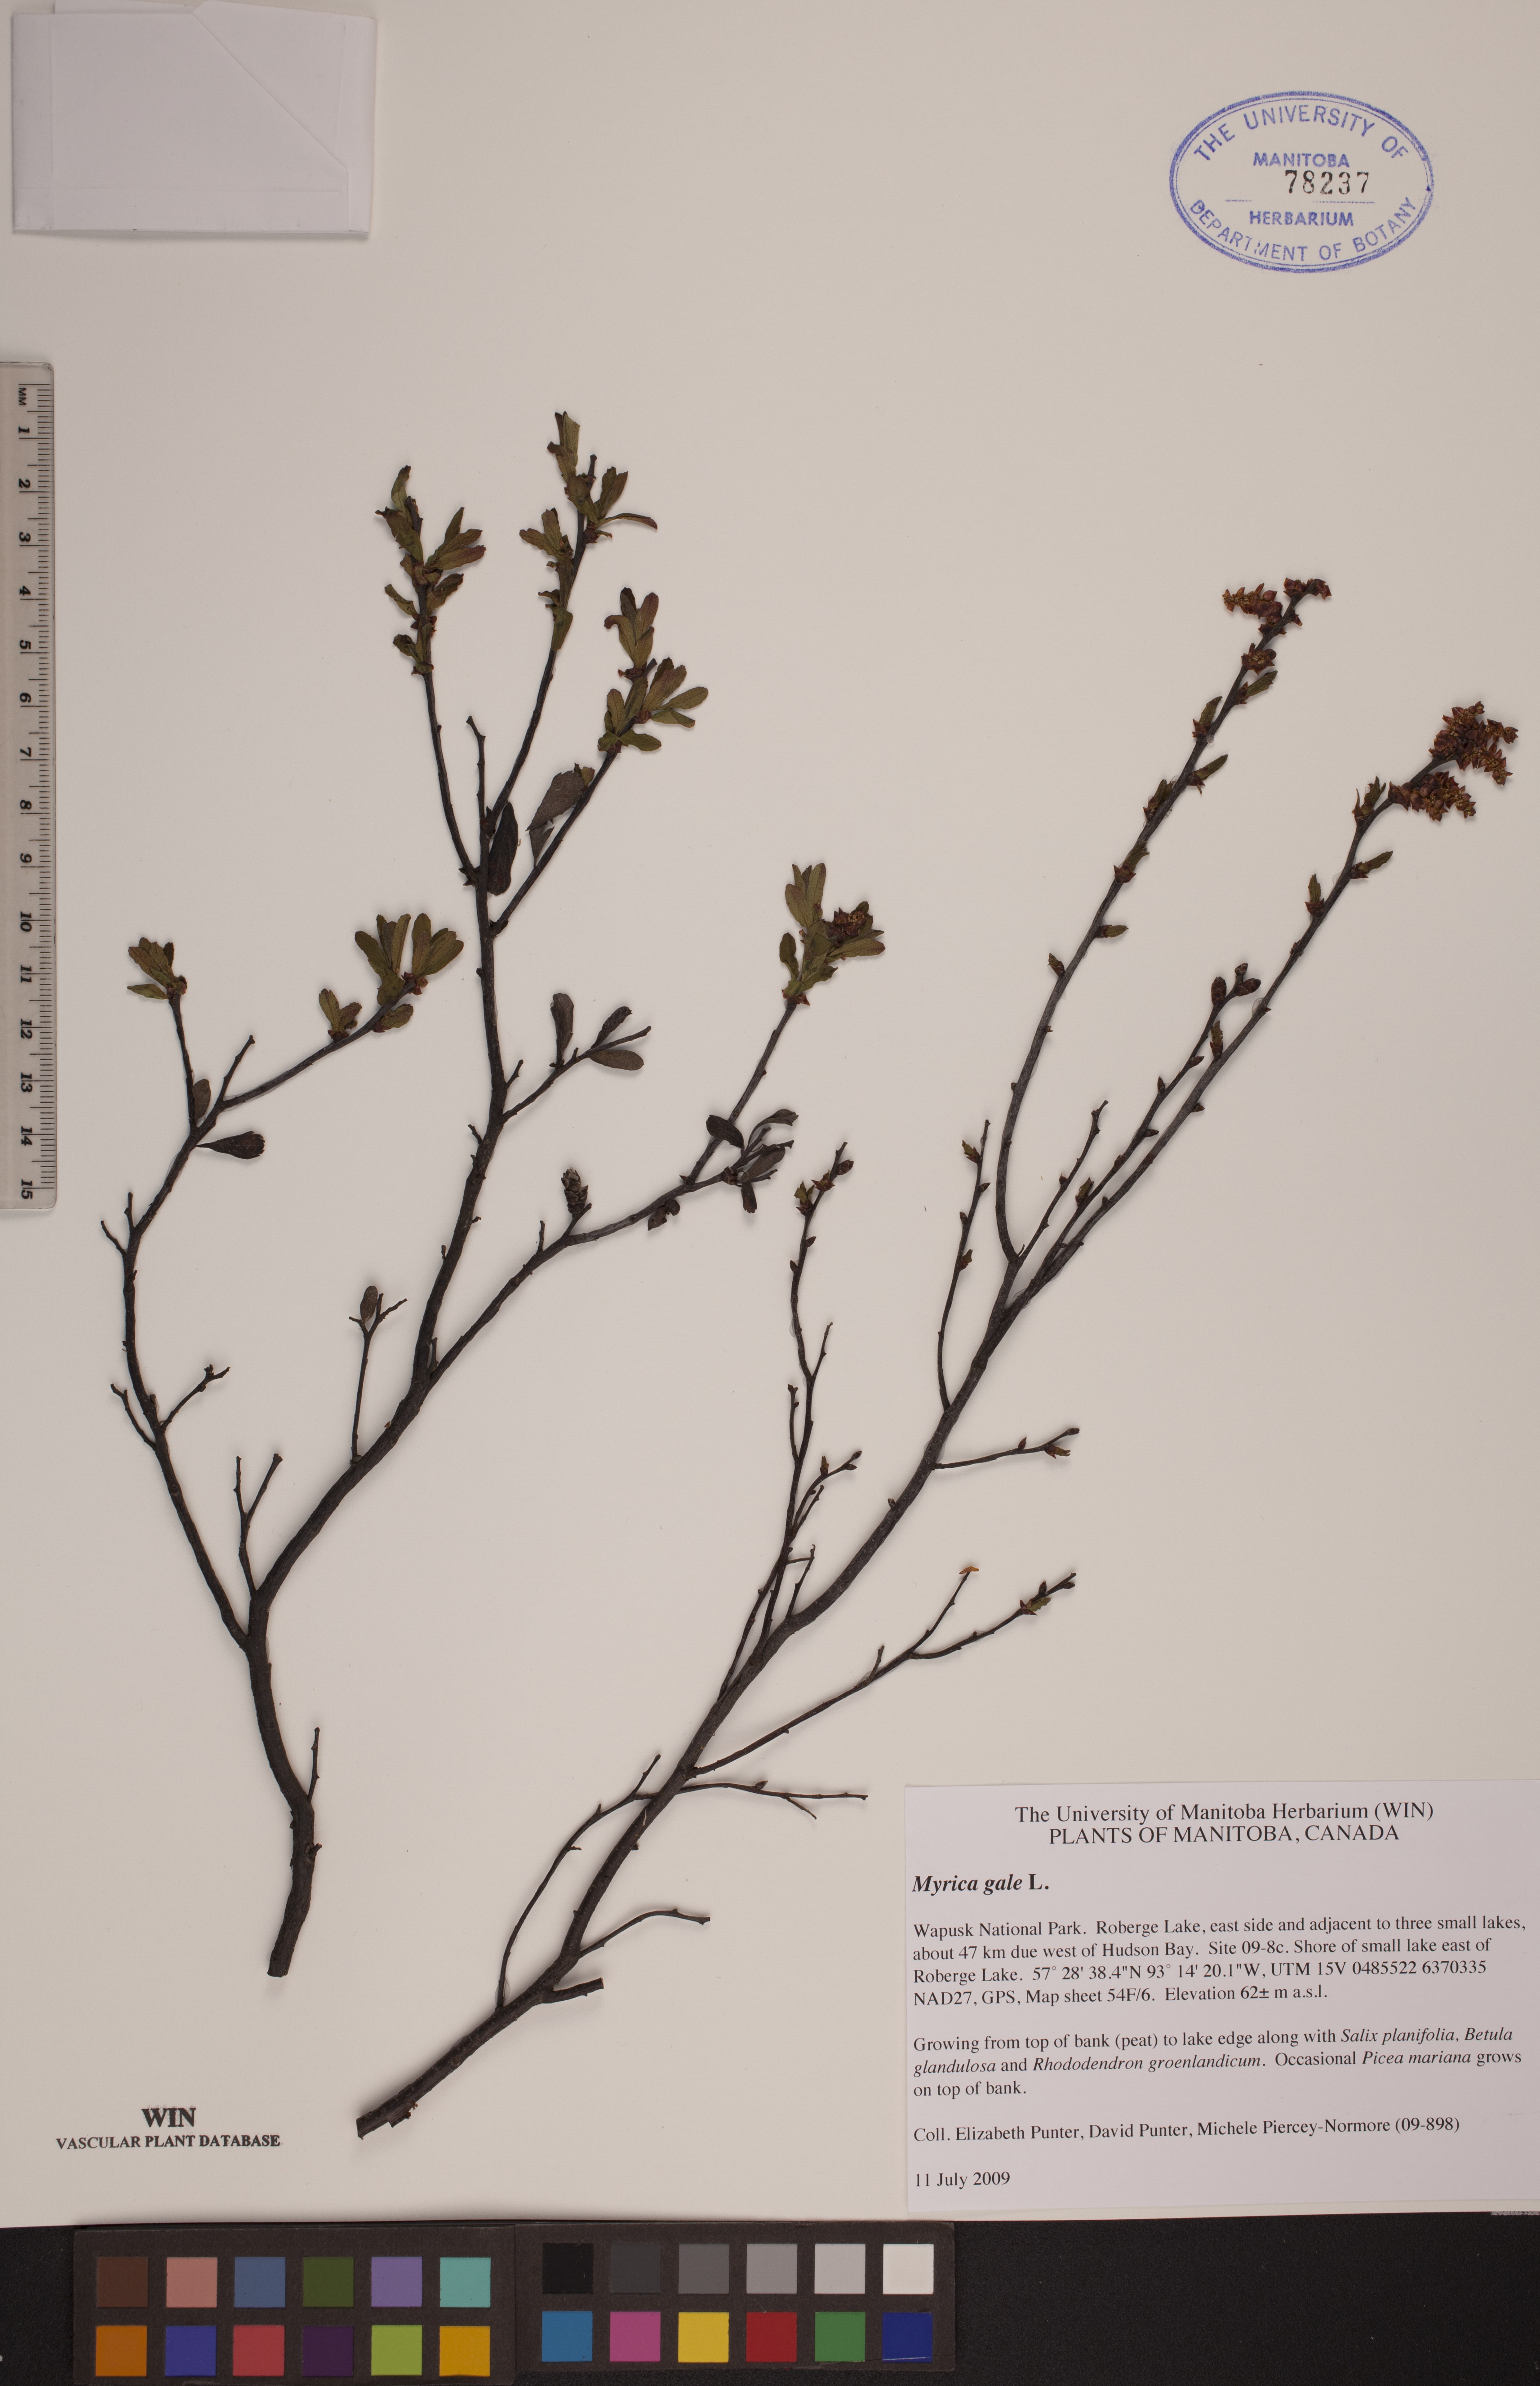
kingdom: Plantae
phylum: Tracheophyta
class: Magnoliopsida
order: Fagales
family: Myricaceae
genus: Myrica
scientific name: Myrica gale
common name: Sweet gale
